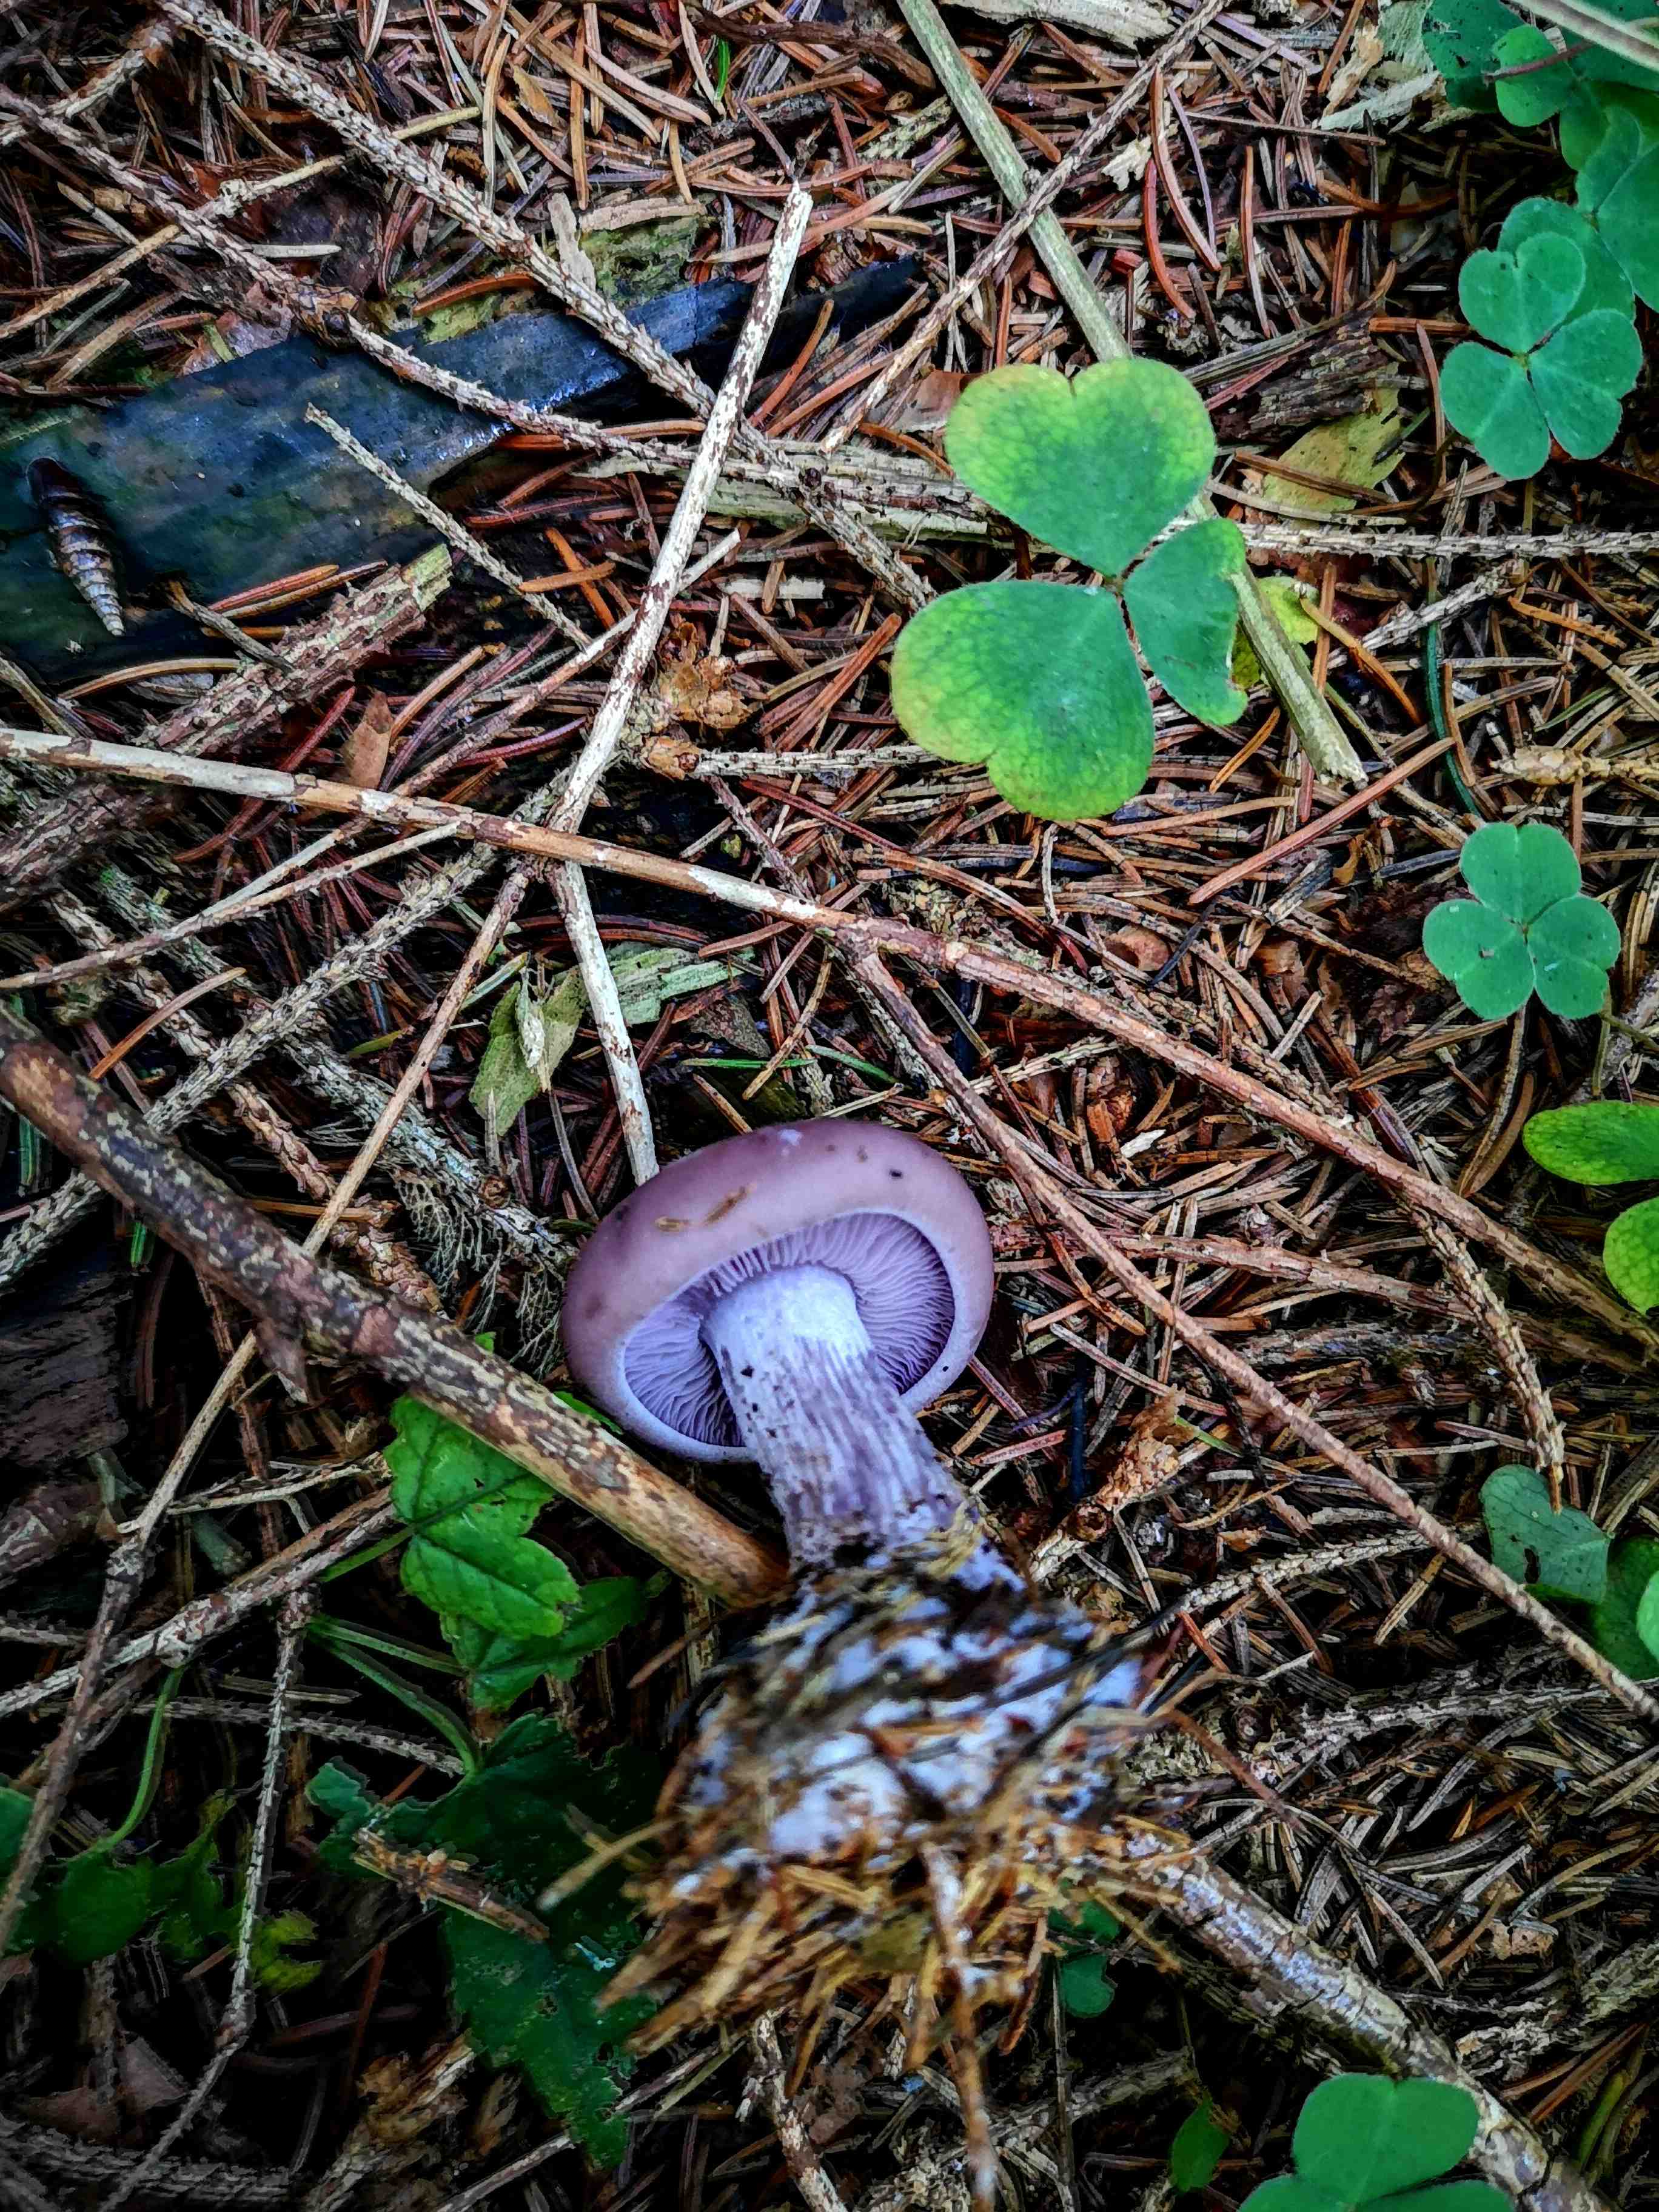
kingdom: Fungi
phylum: Basidiomycota
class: Agaricomycetes
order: Agaricales
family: Tricholomataceae
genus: Lepista
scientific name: Lepista nuda
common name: violet hekseringshat
